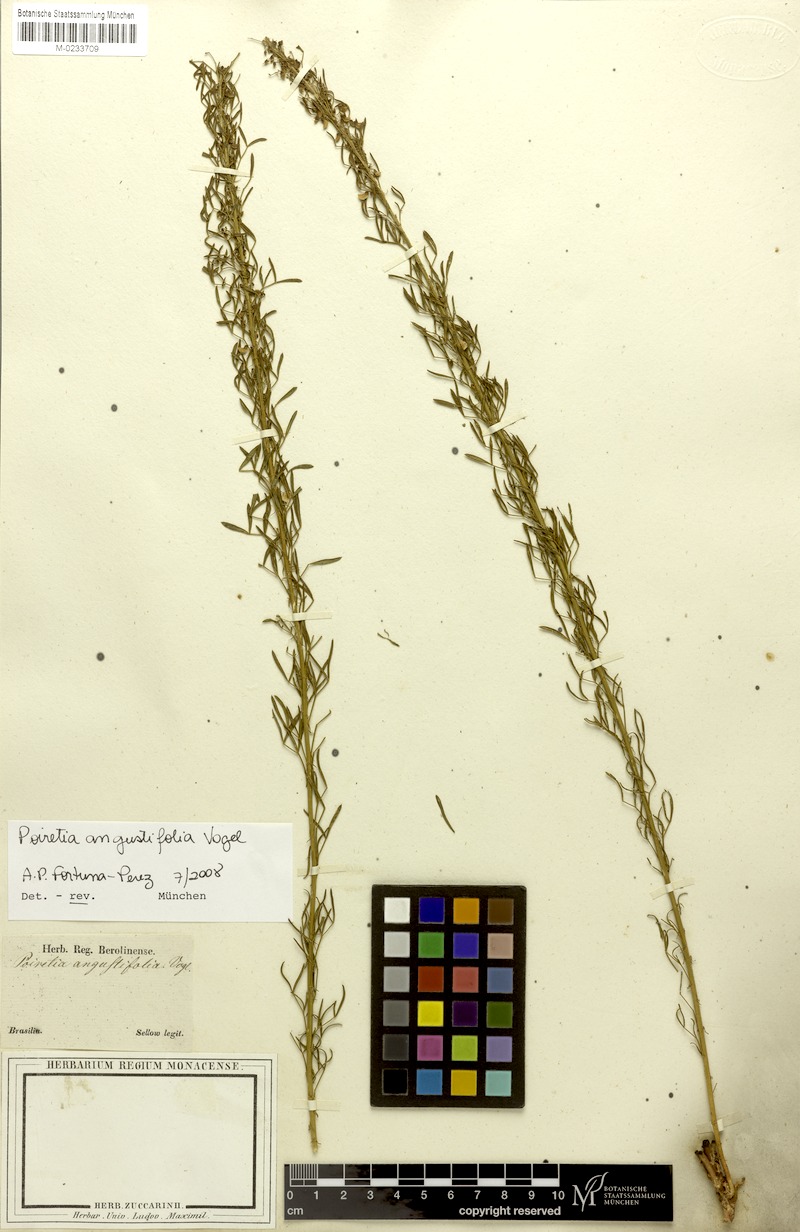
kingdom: Plantae
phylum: Tracheophyta
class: Magnoliopsida
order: Fabales
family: Fabaceae
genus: Poiretia
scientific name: Poiretia angustifolia
